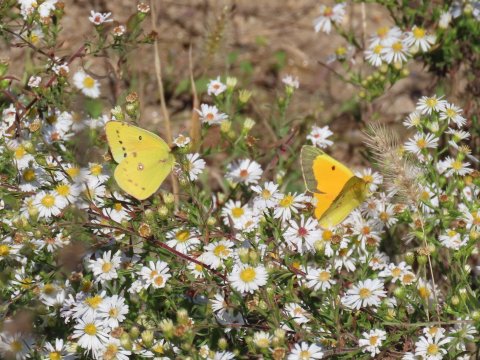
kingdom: Animalia
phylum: Arthropoda
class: Insecta
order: Lepidoptera
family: Pieridae
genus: Colias
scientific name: Colias eurytheme
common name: Orange Sulphur
